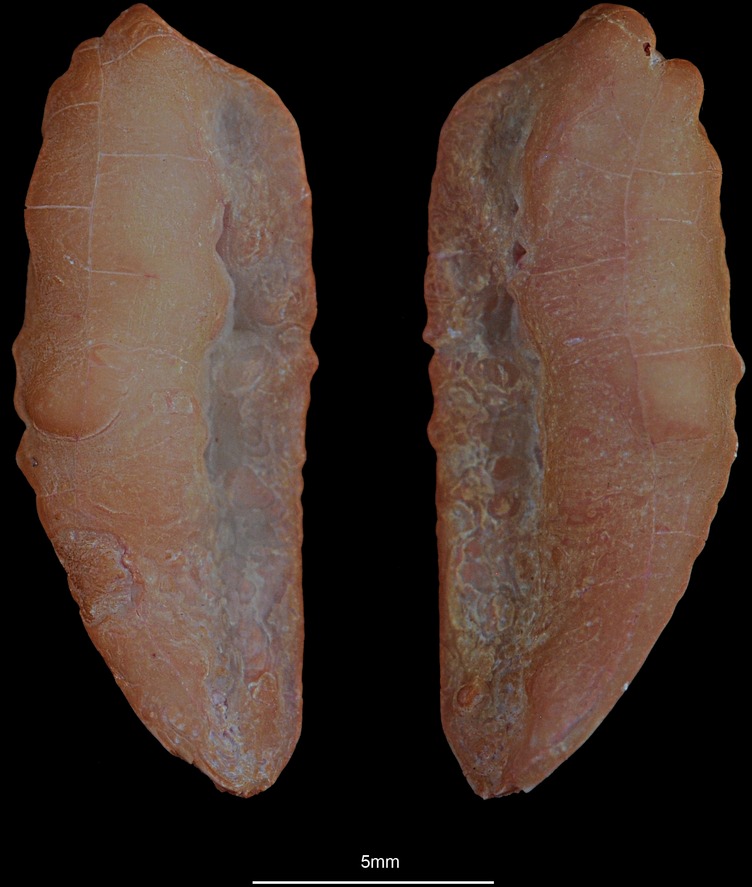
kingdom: Animalia
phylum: Chordata
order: Gadiformes
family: Phycidae
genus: Phycis
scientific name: Phycis blennoides
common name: Forked hake
